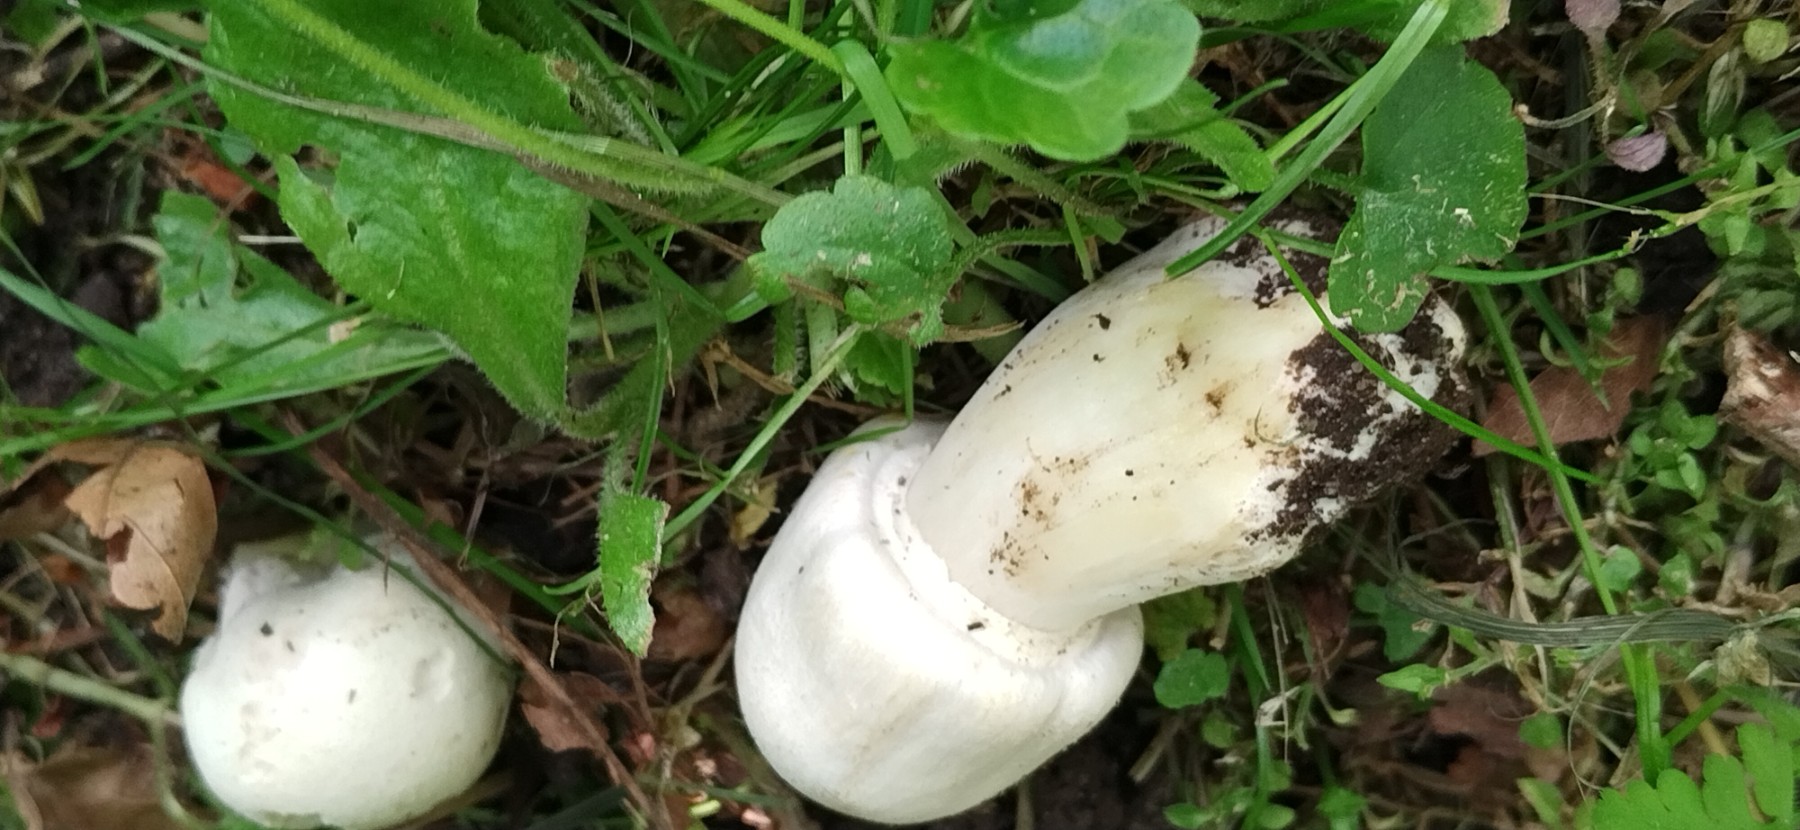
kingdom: Fungi
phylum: Basidiomycota
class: Agaricomycetes
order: Agaricales
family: Agaricaceae
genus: Agaricus
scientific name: Agaricus xanthodermus
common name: karbol-champignon
